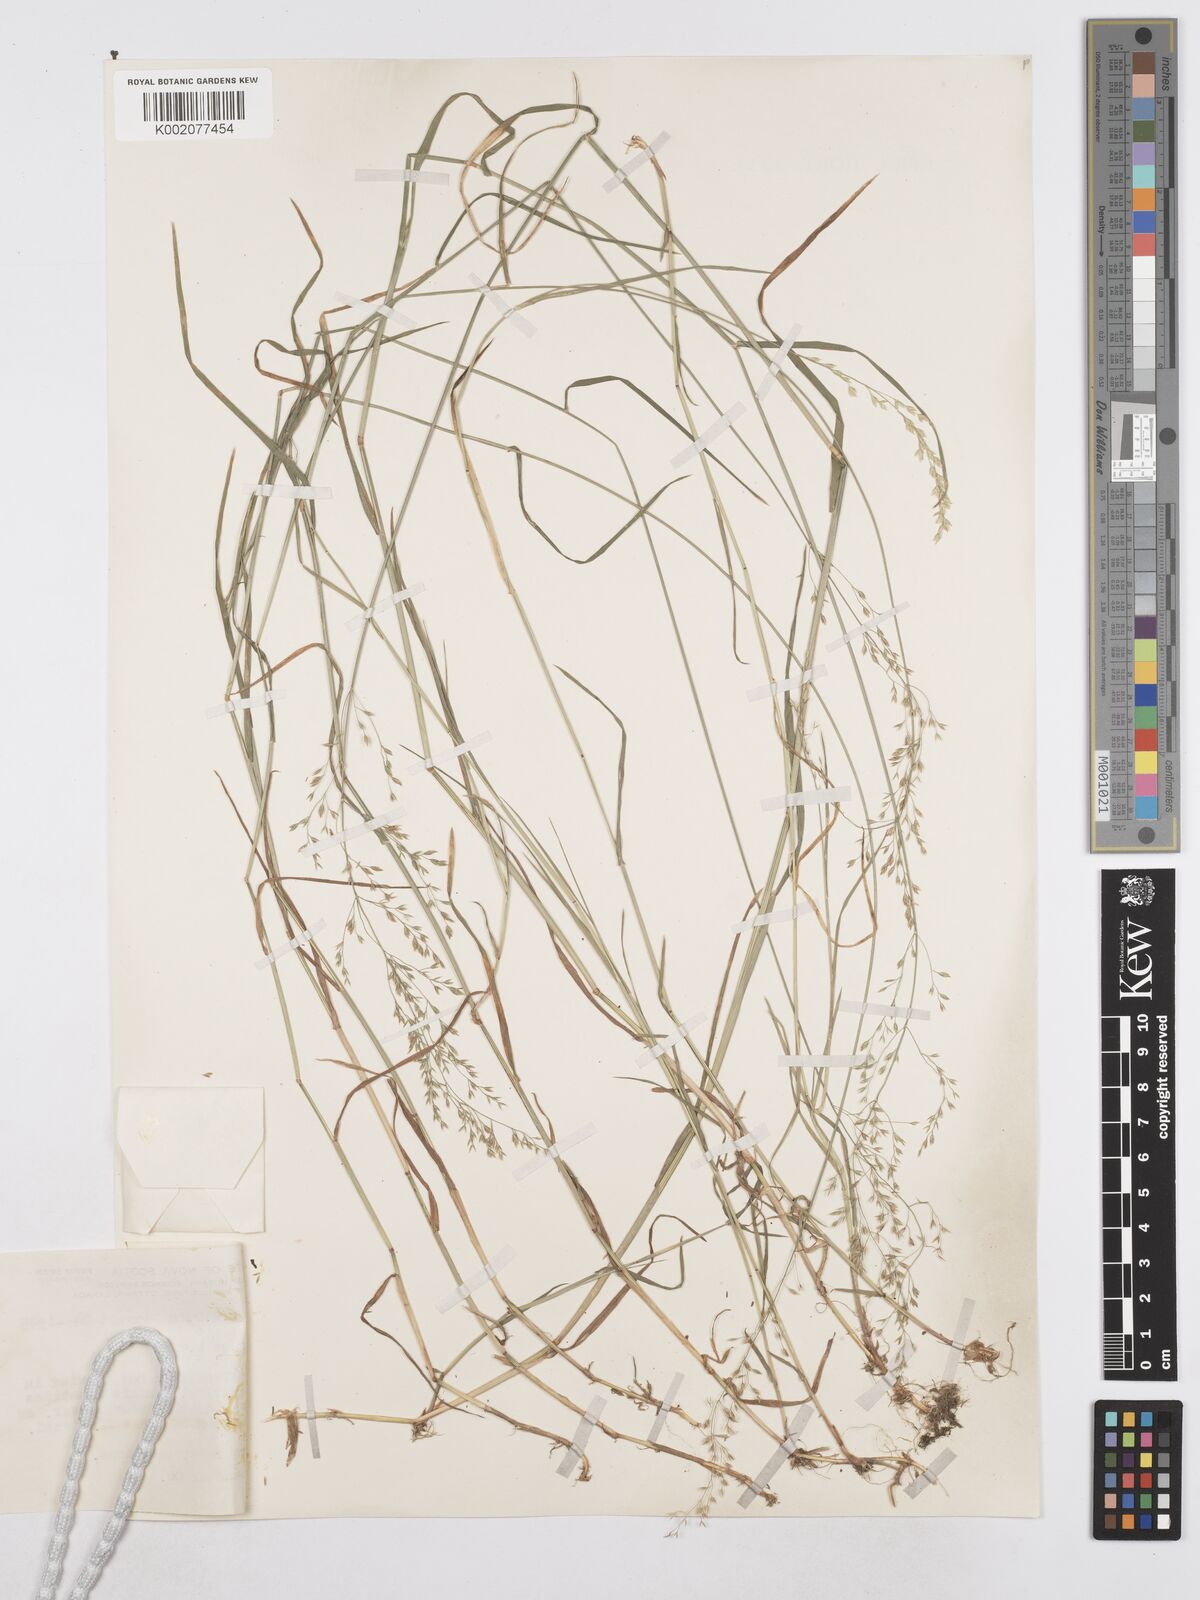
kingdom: Plantae
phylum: Tracheophyta
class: Liliopsida
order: Poales
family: Poaceae
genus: Poa
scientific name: Poa compressa
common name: Canada bluegrass
